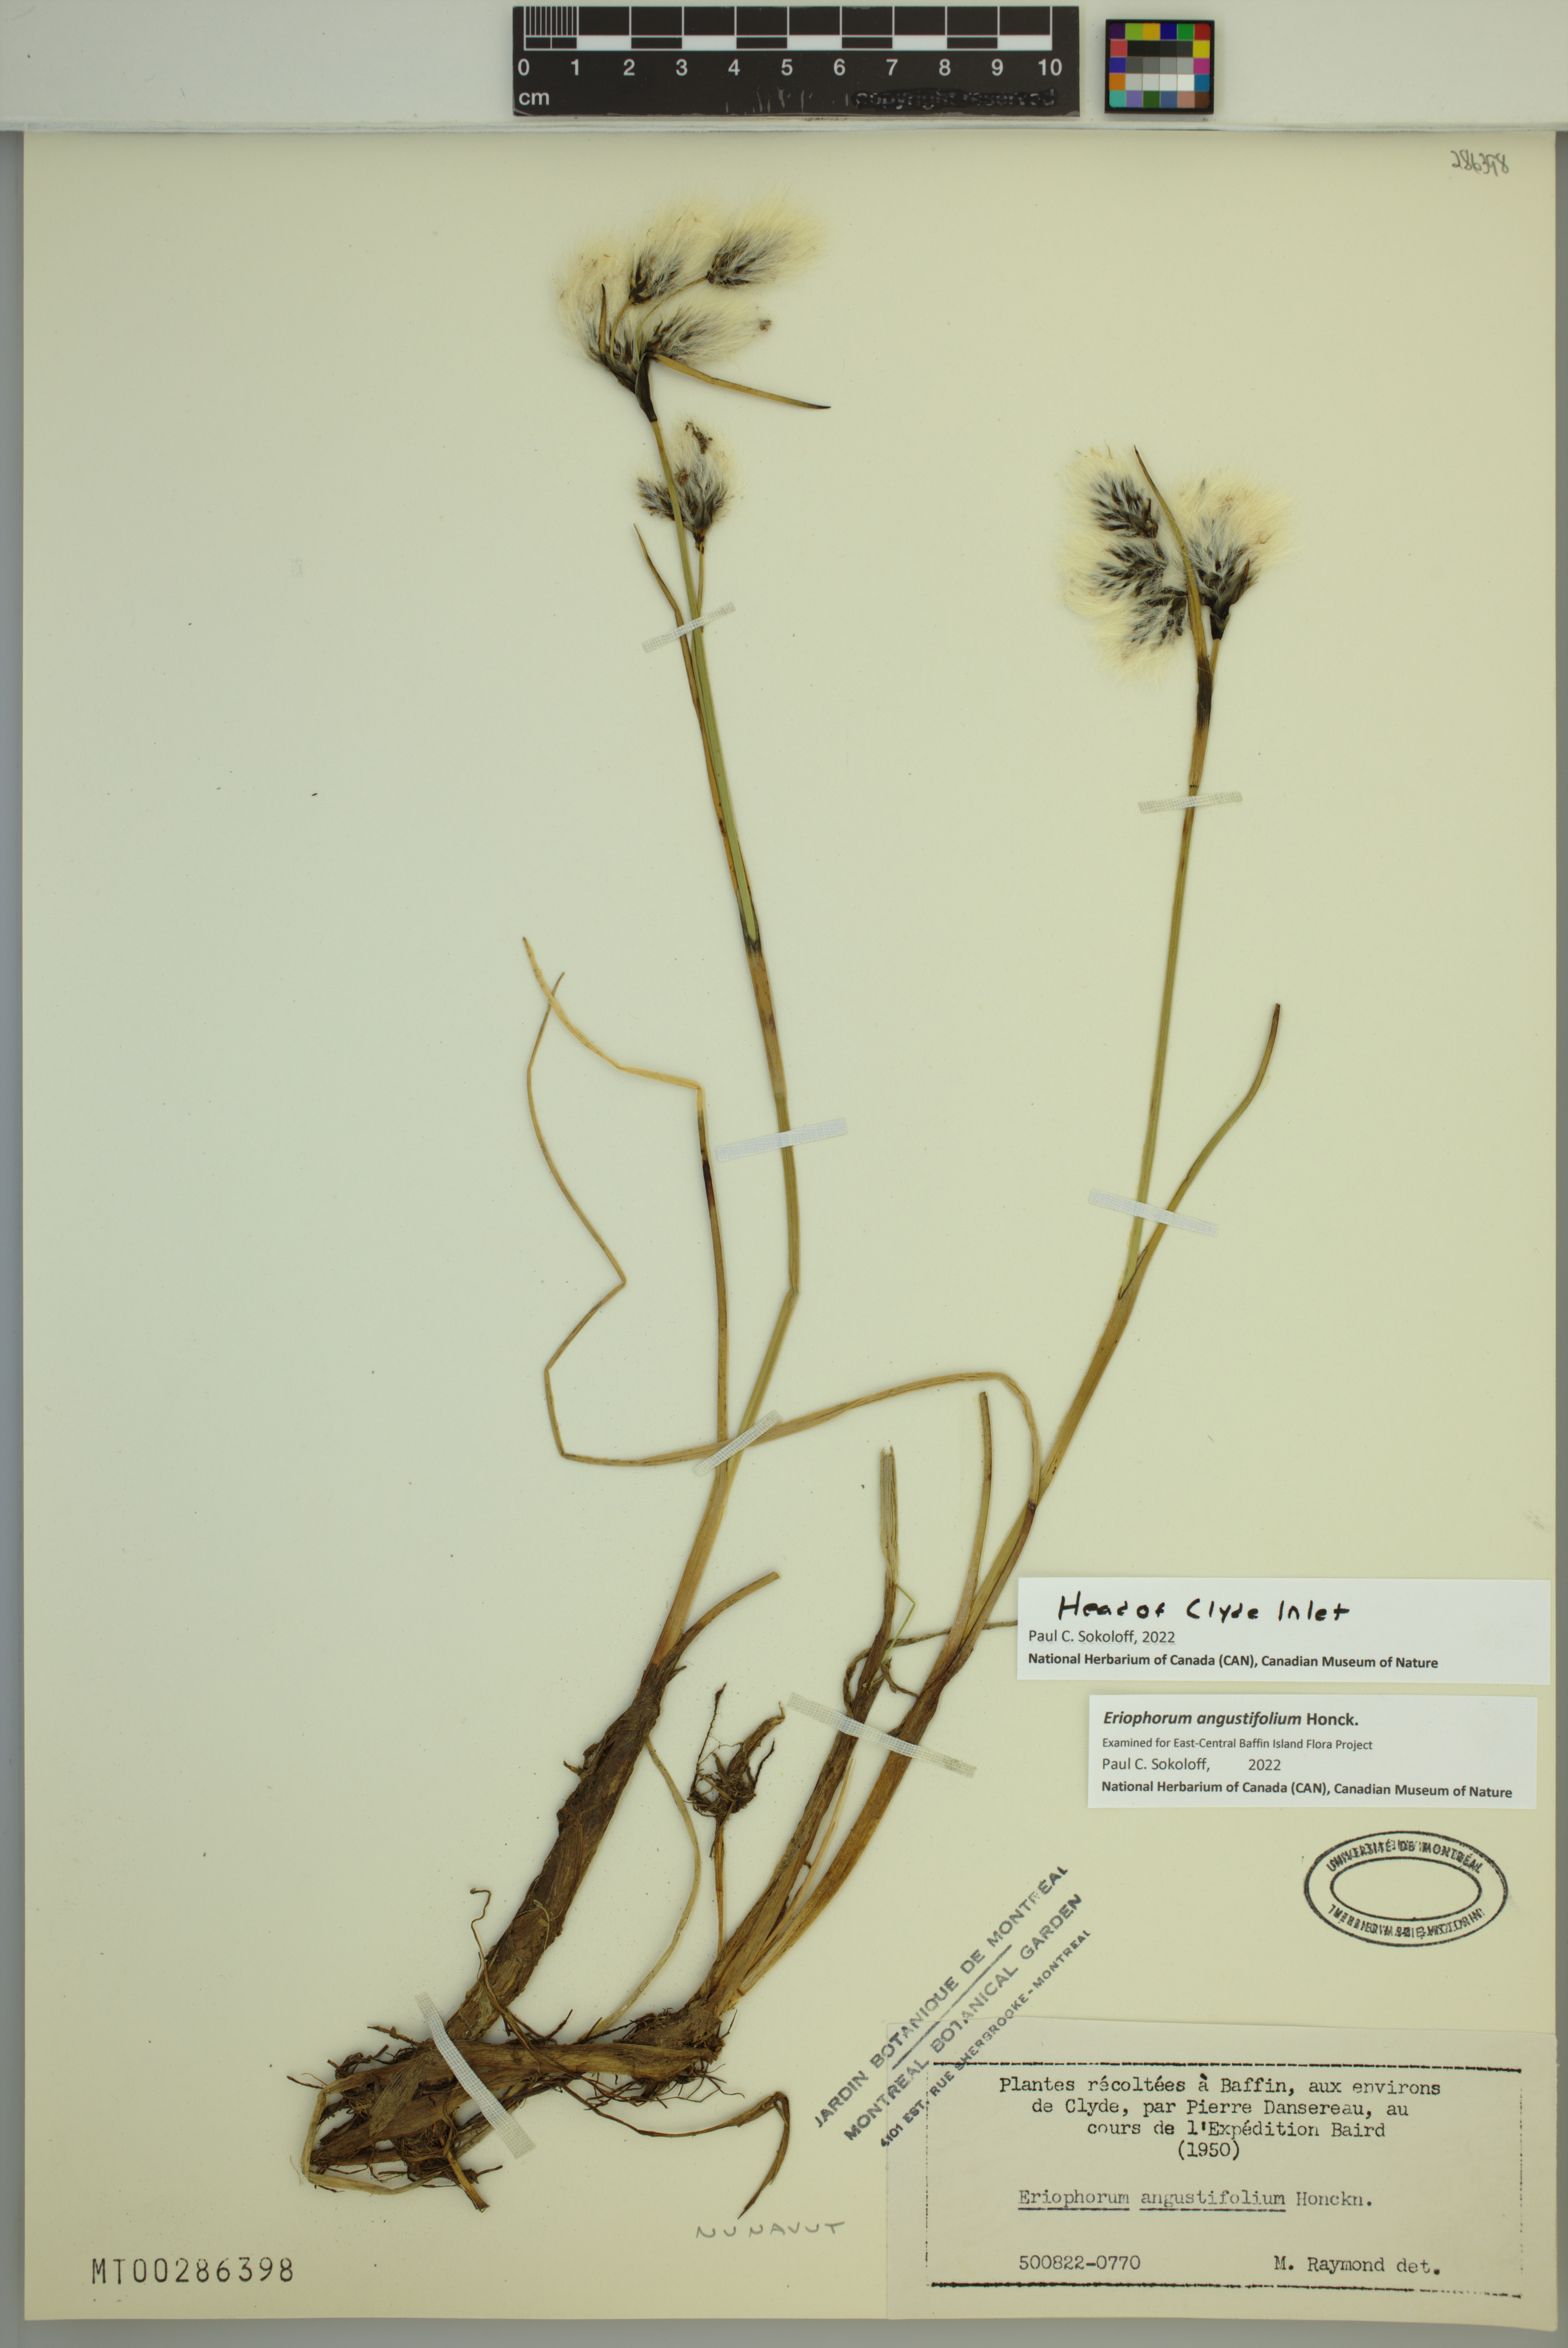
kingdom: Plantae
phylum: Tracheophyta
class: Liliopsida
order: Poales
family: Cyperaceae
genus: Eriophorum
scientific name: Eriophorum angustifolium
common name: Common cottongrass
